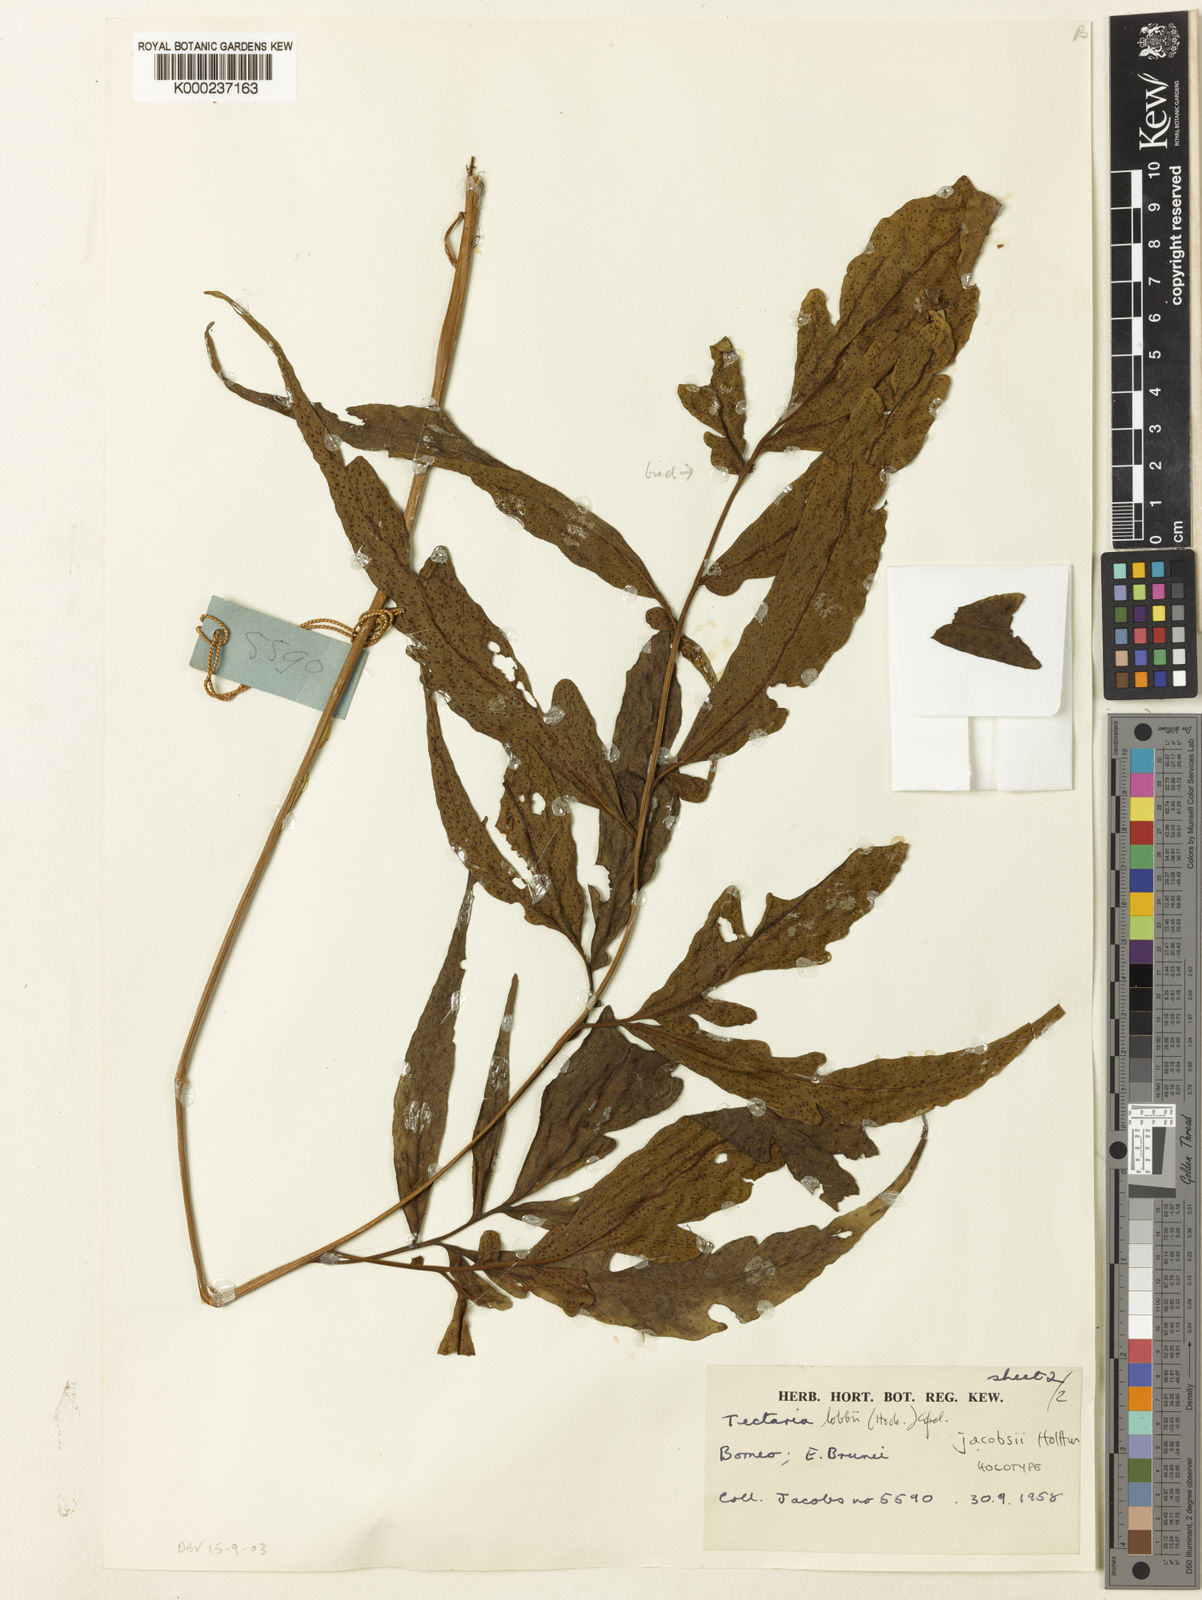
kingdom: Plantae
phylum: Tracheophyta
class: Polypodiopsida
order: Polypodiales
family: Tectariaceae
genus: Tectaria
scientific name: Tectaria jacobsii
